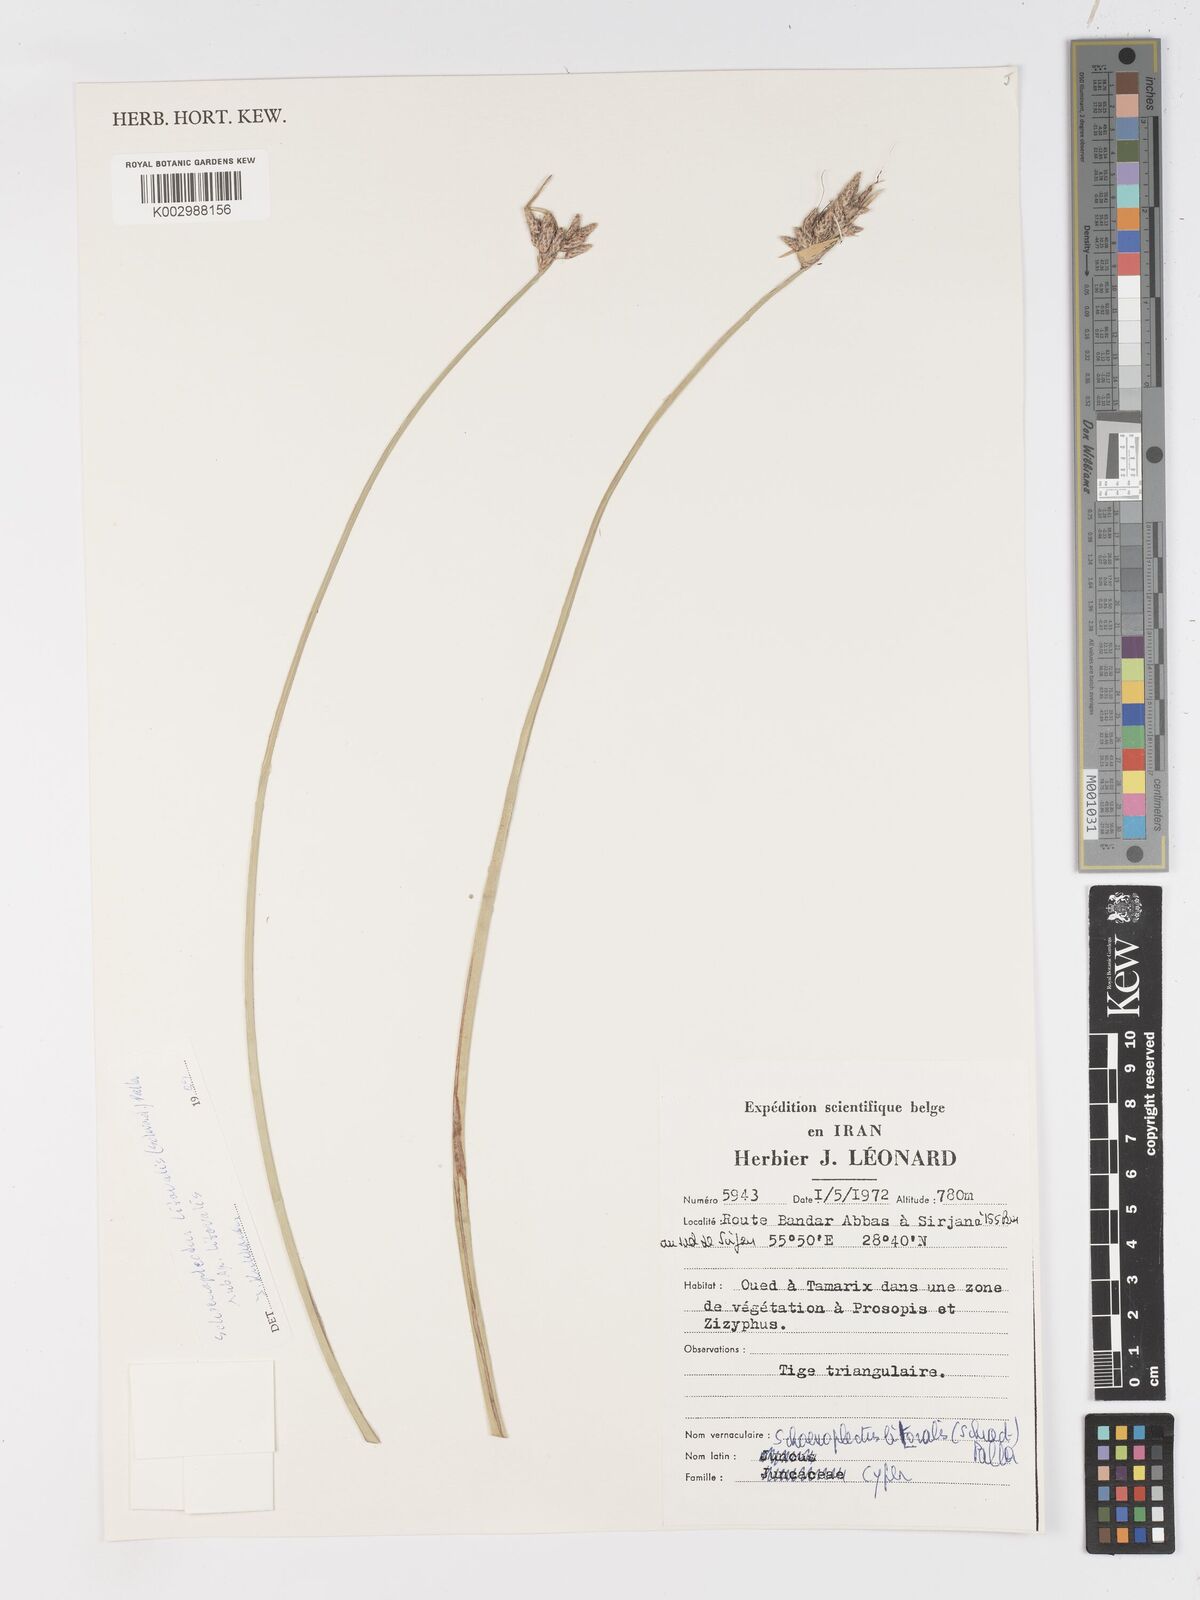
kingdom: Plantae
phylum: Tracheophyta
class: Liliopsida
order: Poales
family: Cyperaceae
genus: Schoenoplectus
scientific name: Schoenoplectus litoralis
